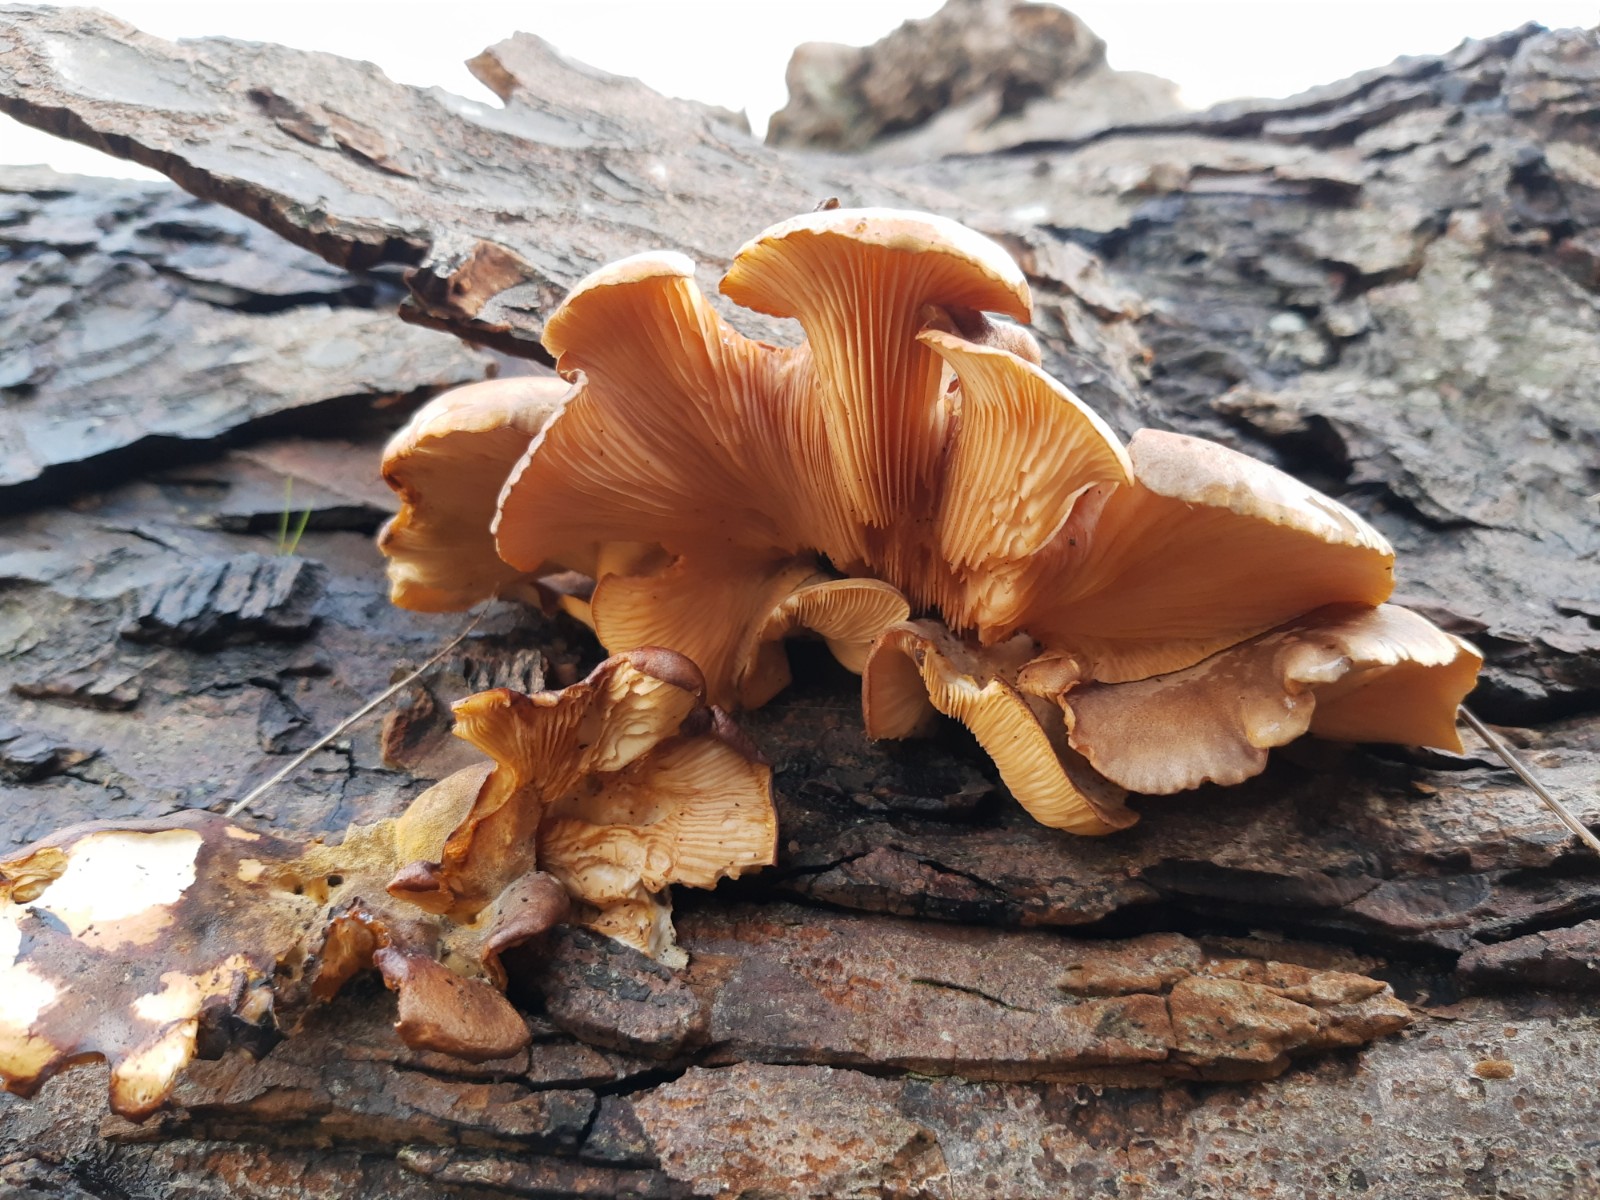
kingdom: Fungi
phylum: Basidiomycota
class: Agaricomycetes
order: Agaricales
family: Sarcomyxaceae
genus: Sarcomyxa
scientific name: Sarcomyxa serotina
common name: gummihat
